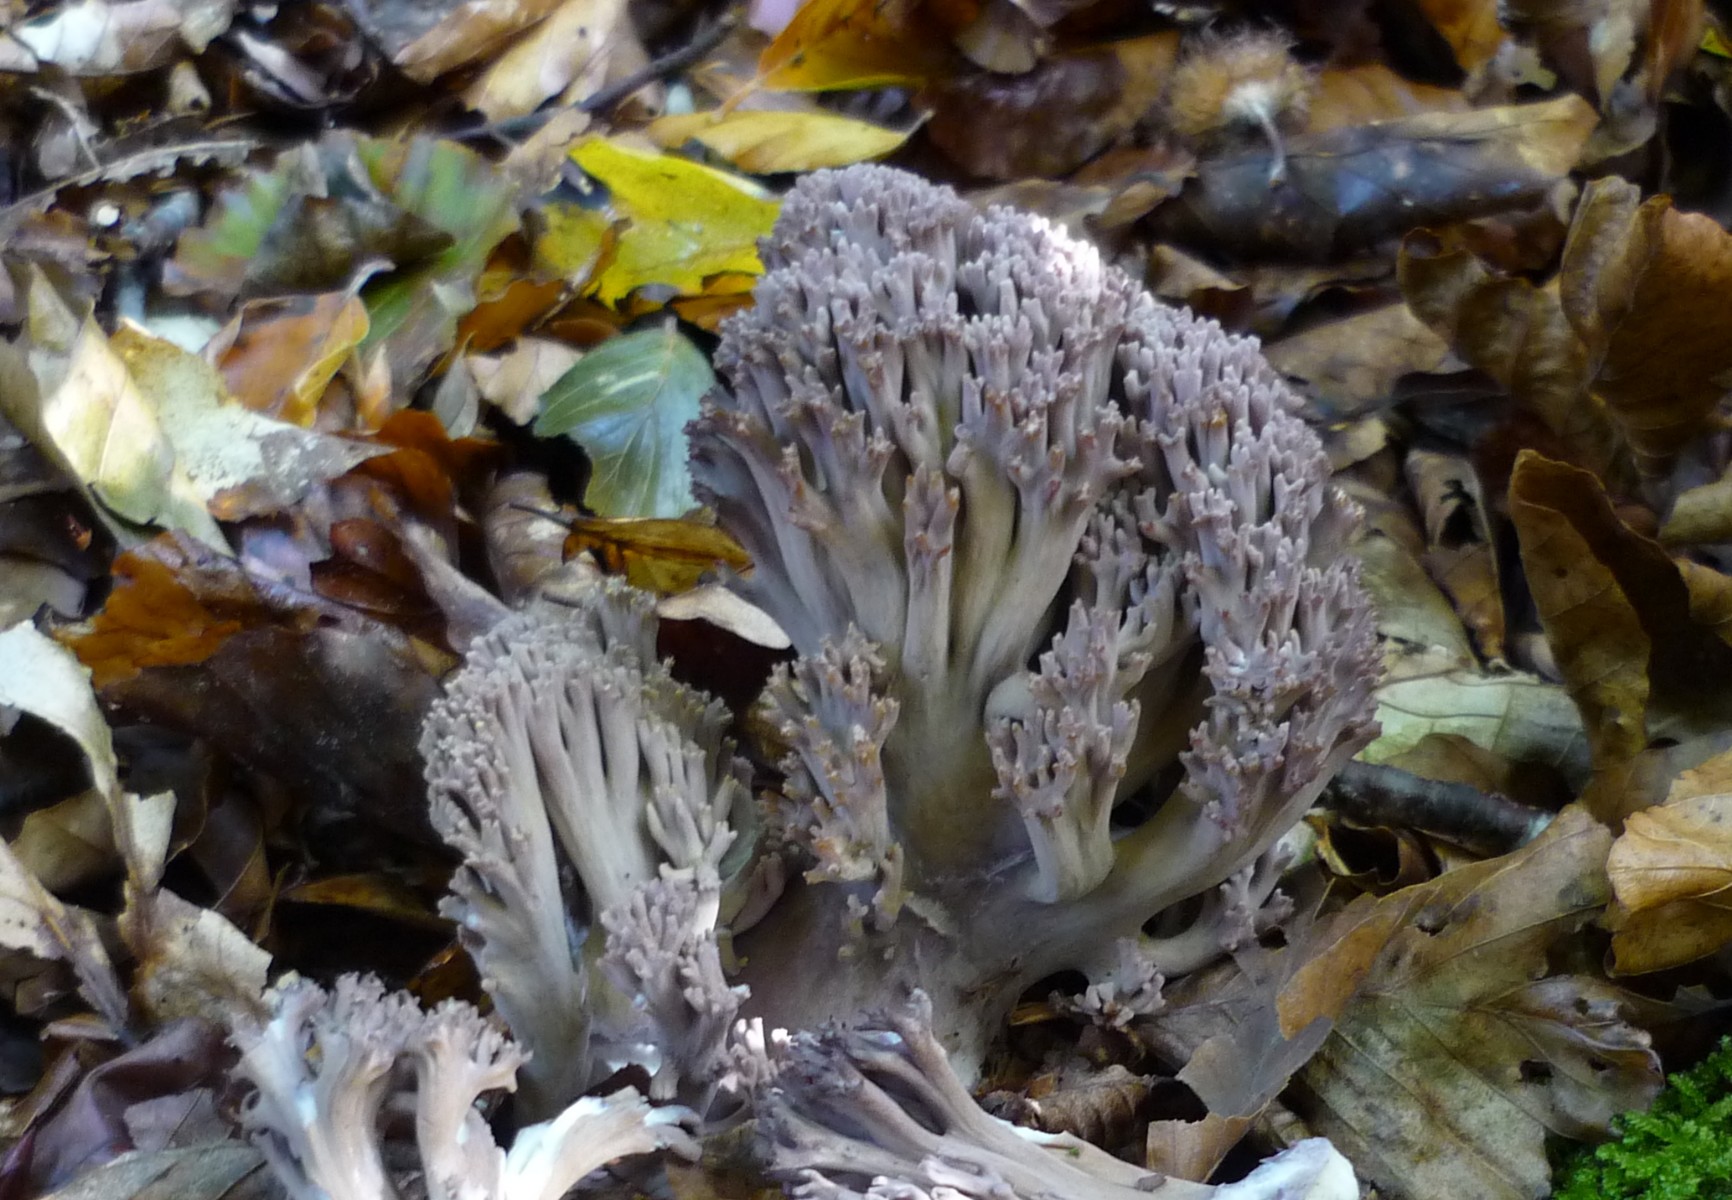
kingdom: Fungi
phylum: Basidiomycota
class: Agaricomycetes
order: Gomphales
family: Gomphaceae
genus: Ramaria
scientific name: Ramaria fumigata
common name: violet koralsvamp
